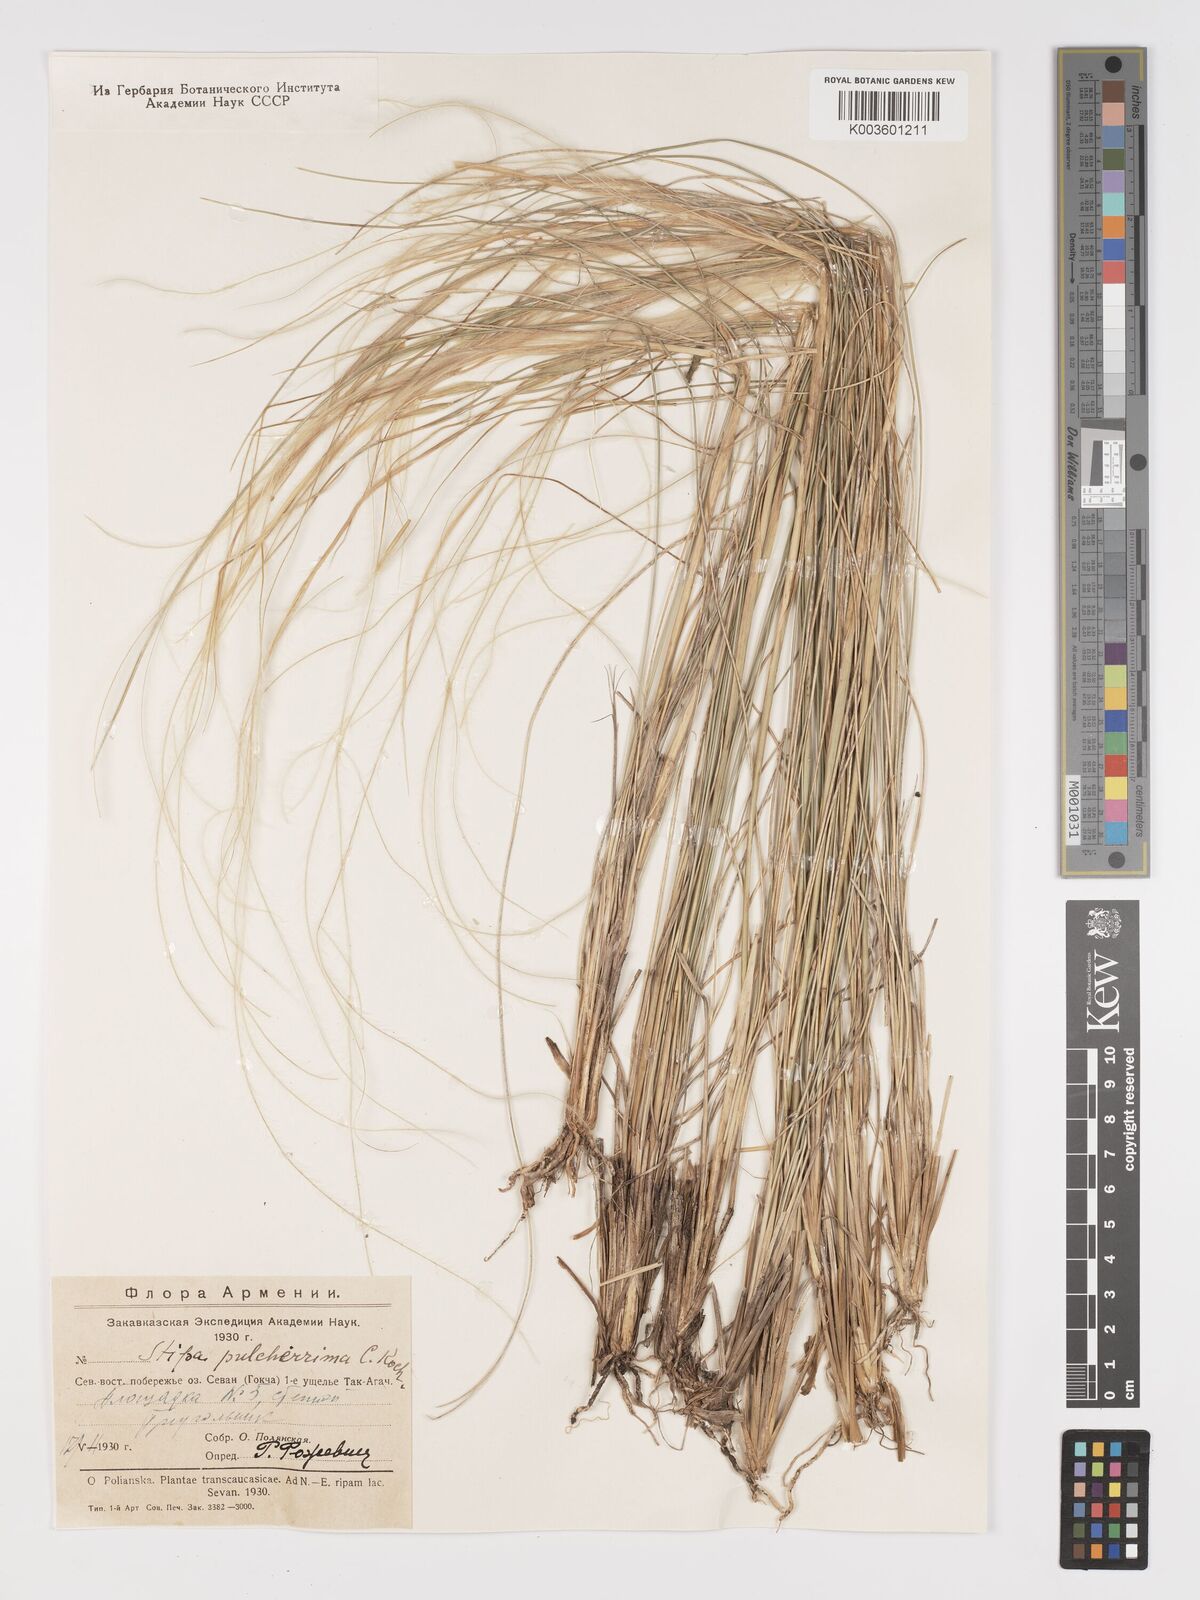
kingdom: Plantae
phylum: Tracheophyta
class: Liliopsida
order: Poales
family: Poaceae
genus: Stipa
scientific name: Stipa pulcherrima
